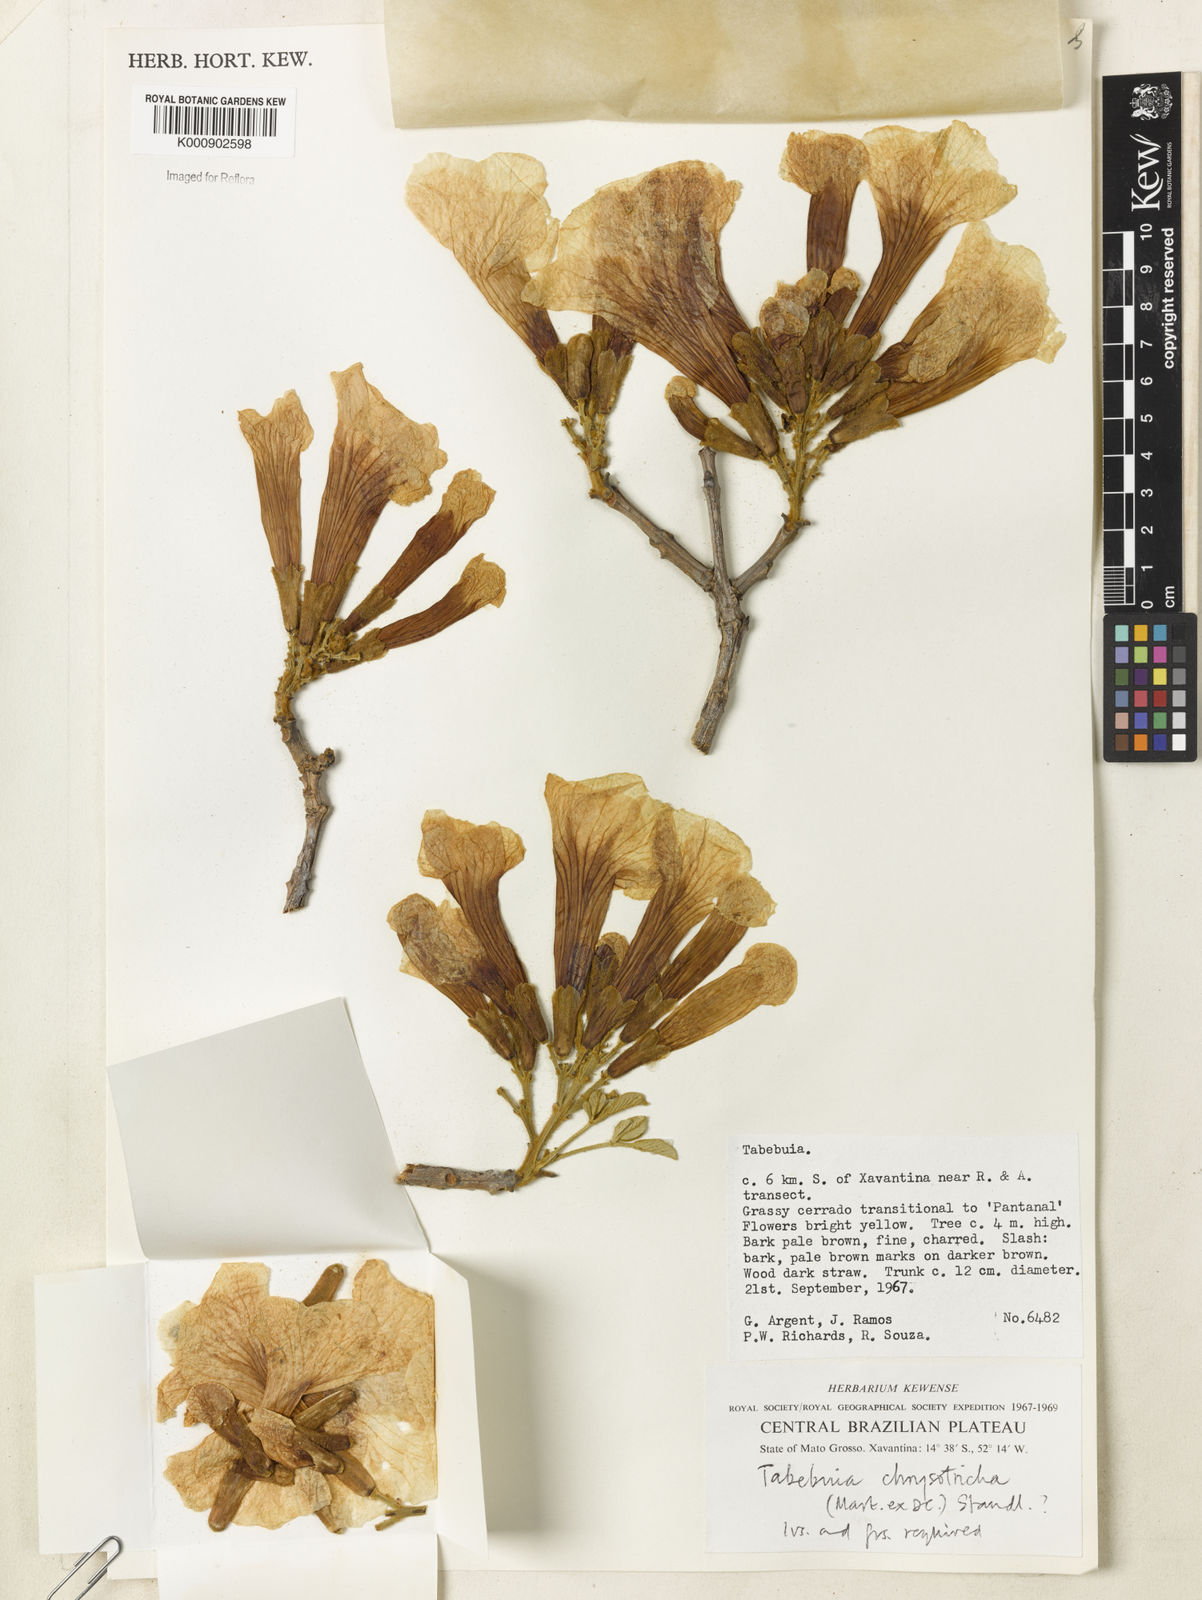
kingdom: Plantae
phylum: Tracheophyta
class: Magnoliopsida
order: Lamiales
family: Bignoniaceae
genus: Handroanthus
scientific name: Handroanthus chrysotrichus
